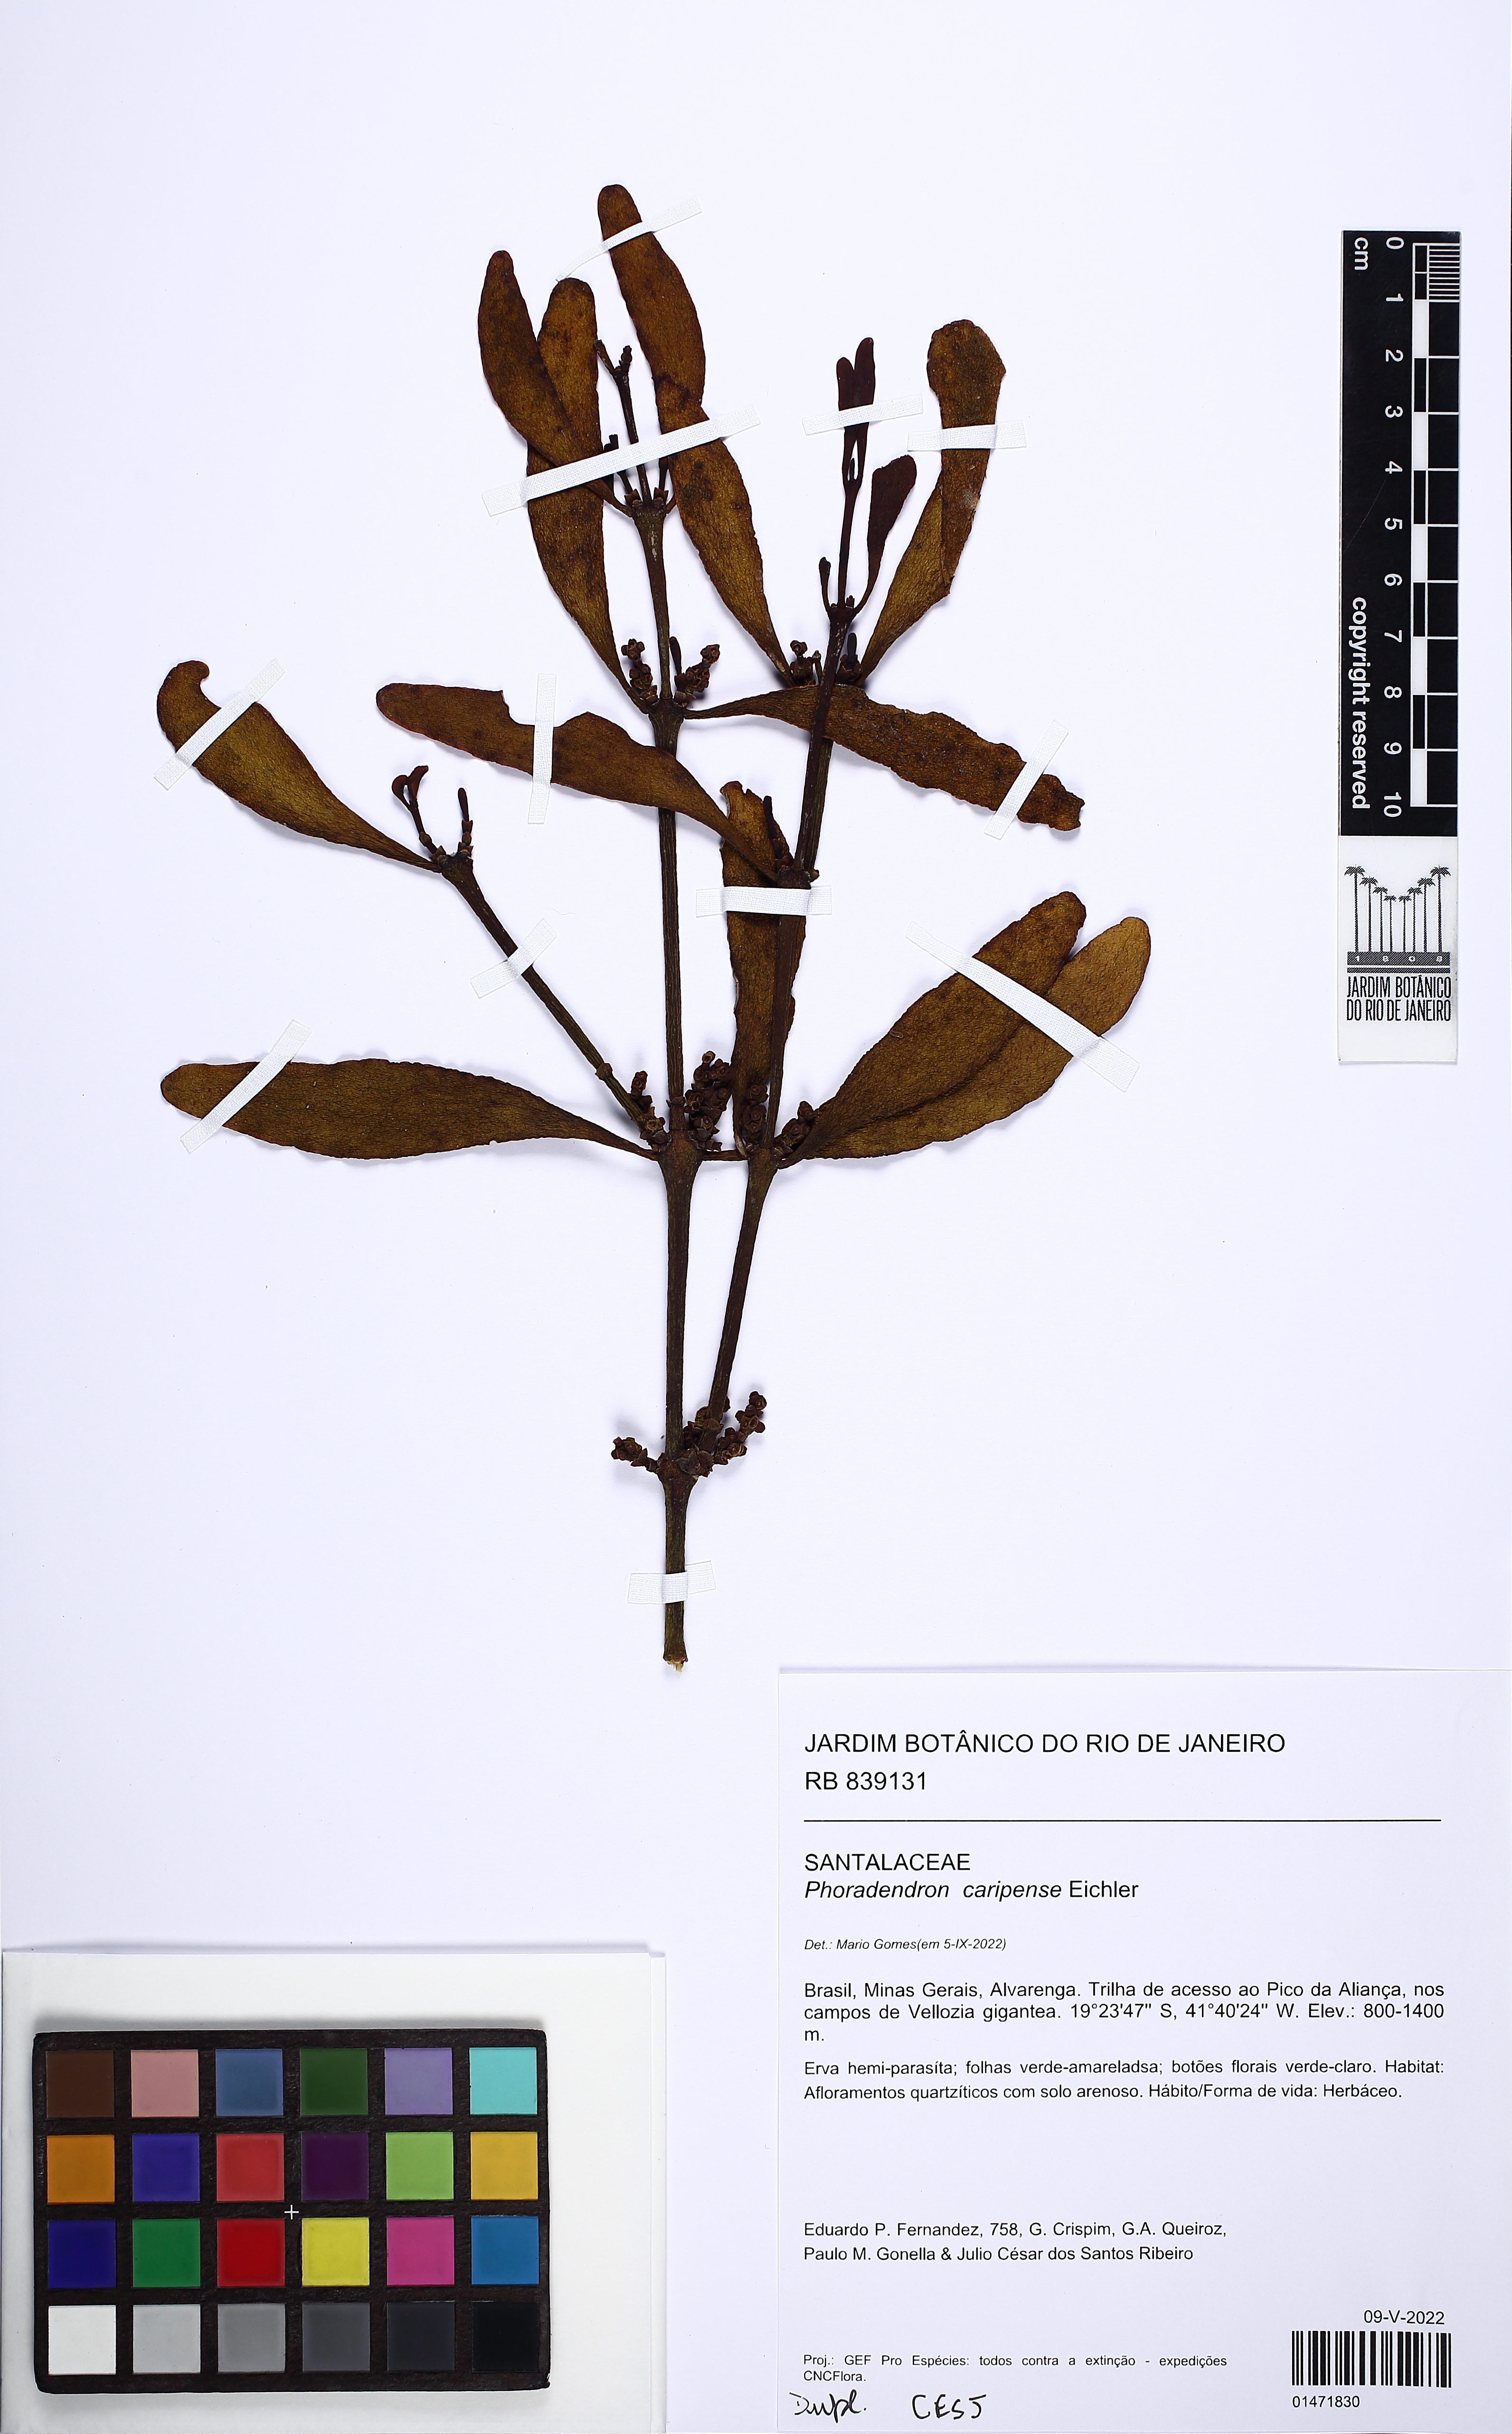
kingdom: Plantae
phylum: Tracheophyta
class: Magnoliopsida
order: Santalales
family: Viscaceae
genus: Phoradendron
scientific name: Phoradendron caripense
